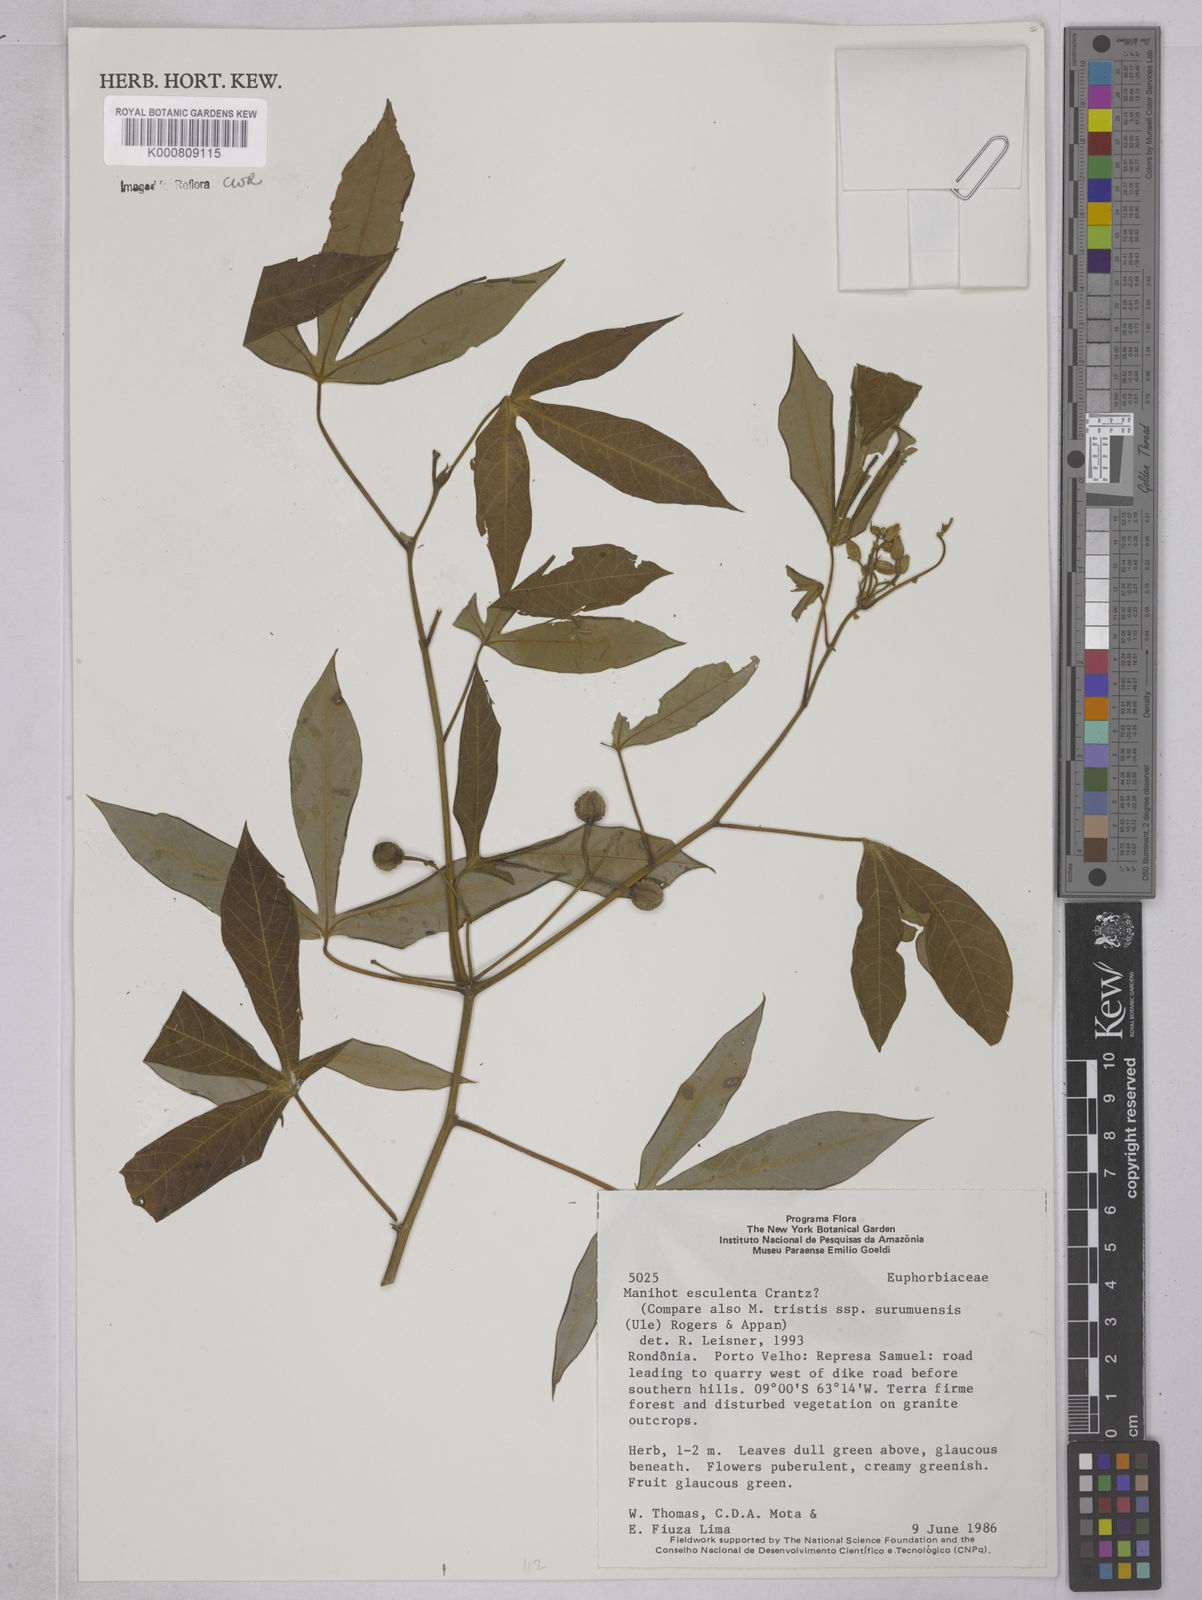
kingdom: Plantae
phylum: Tracheophyta
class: Magnoliopsida
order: Malpighiales
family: Euphorbiaceae
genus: Manihot
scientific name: Manihot esculenta
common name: Cassava
